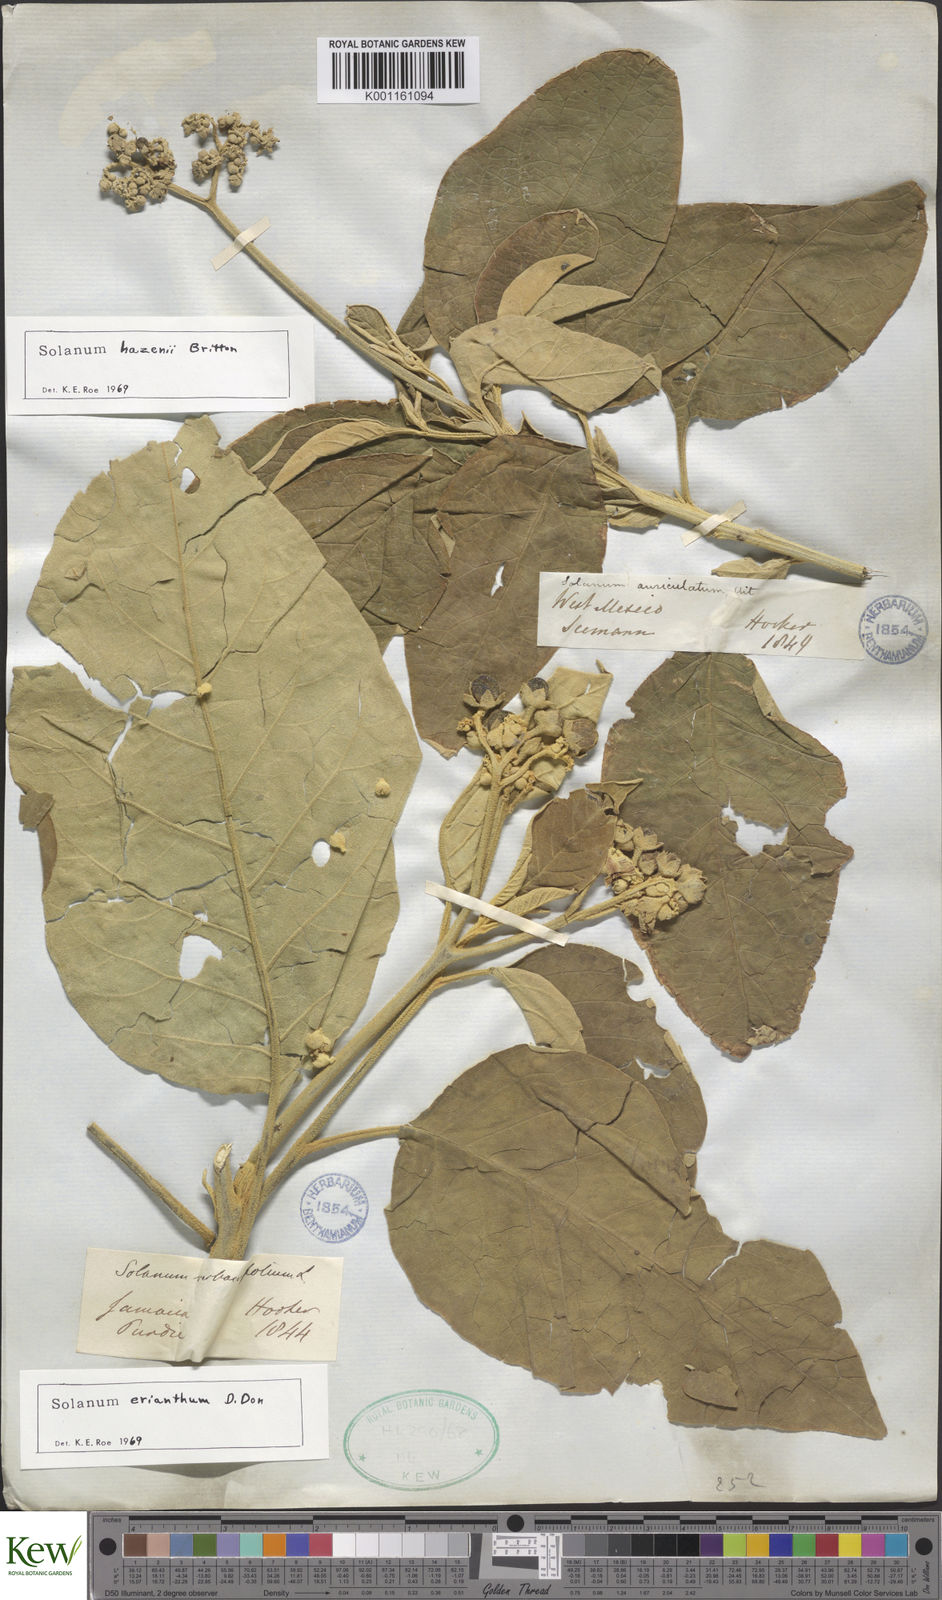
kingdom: Plantae
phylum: Tracheophyta
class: Magnoliopsida
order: Solanales
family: Solanaceae
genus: Solanum
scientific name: Solanum erianthum
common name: Tobacco-tree
